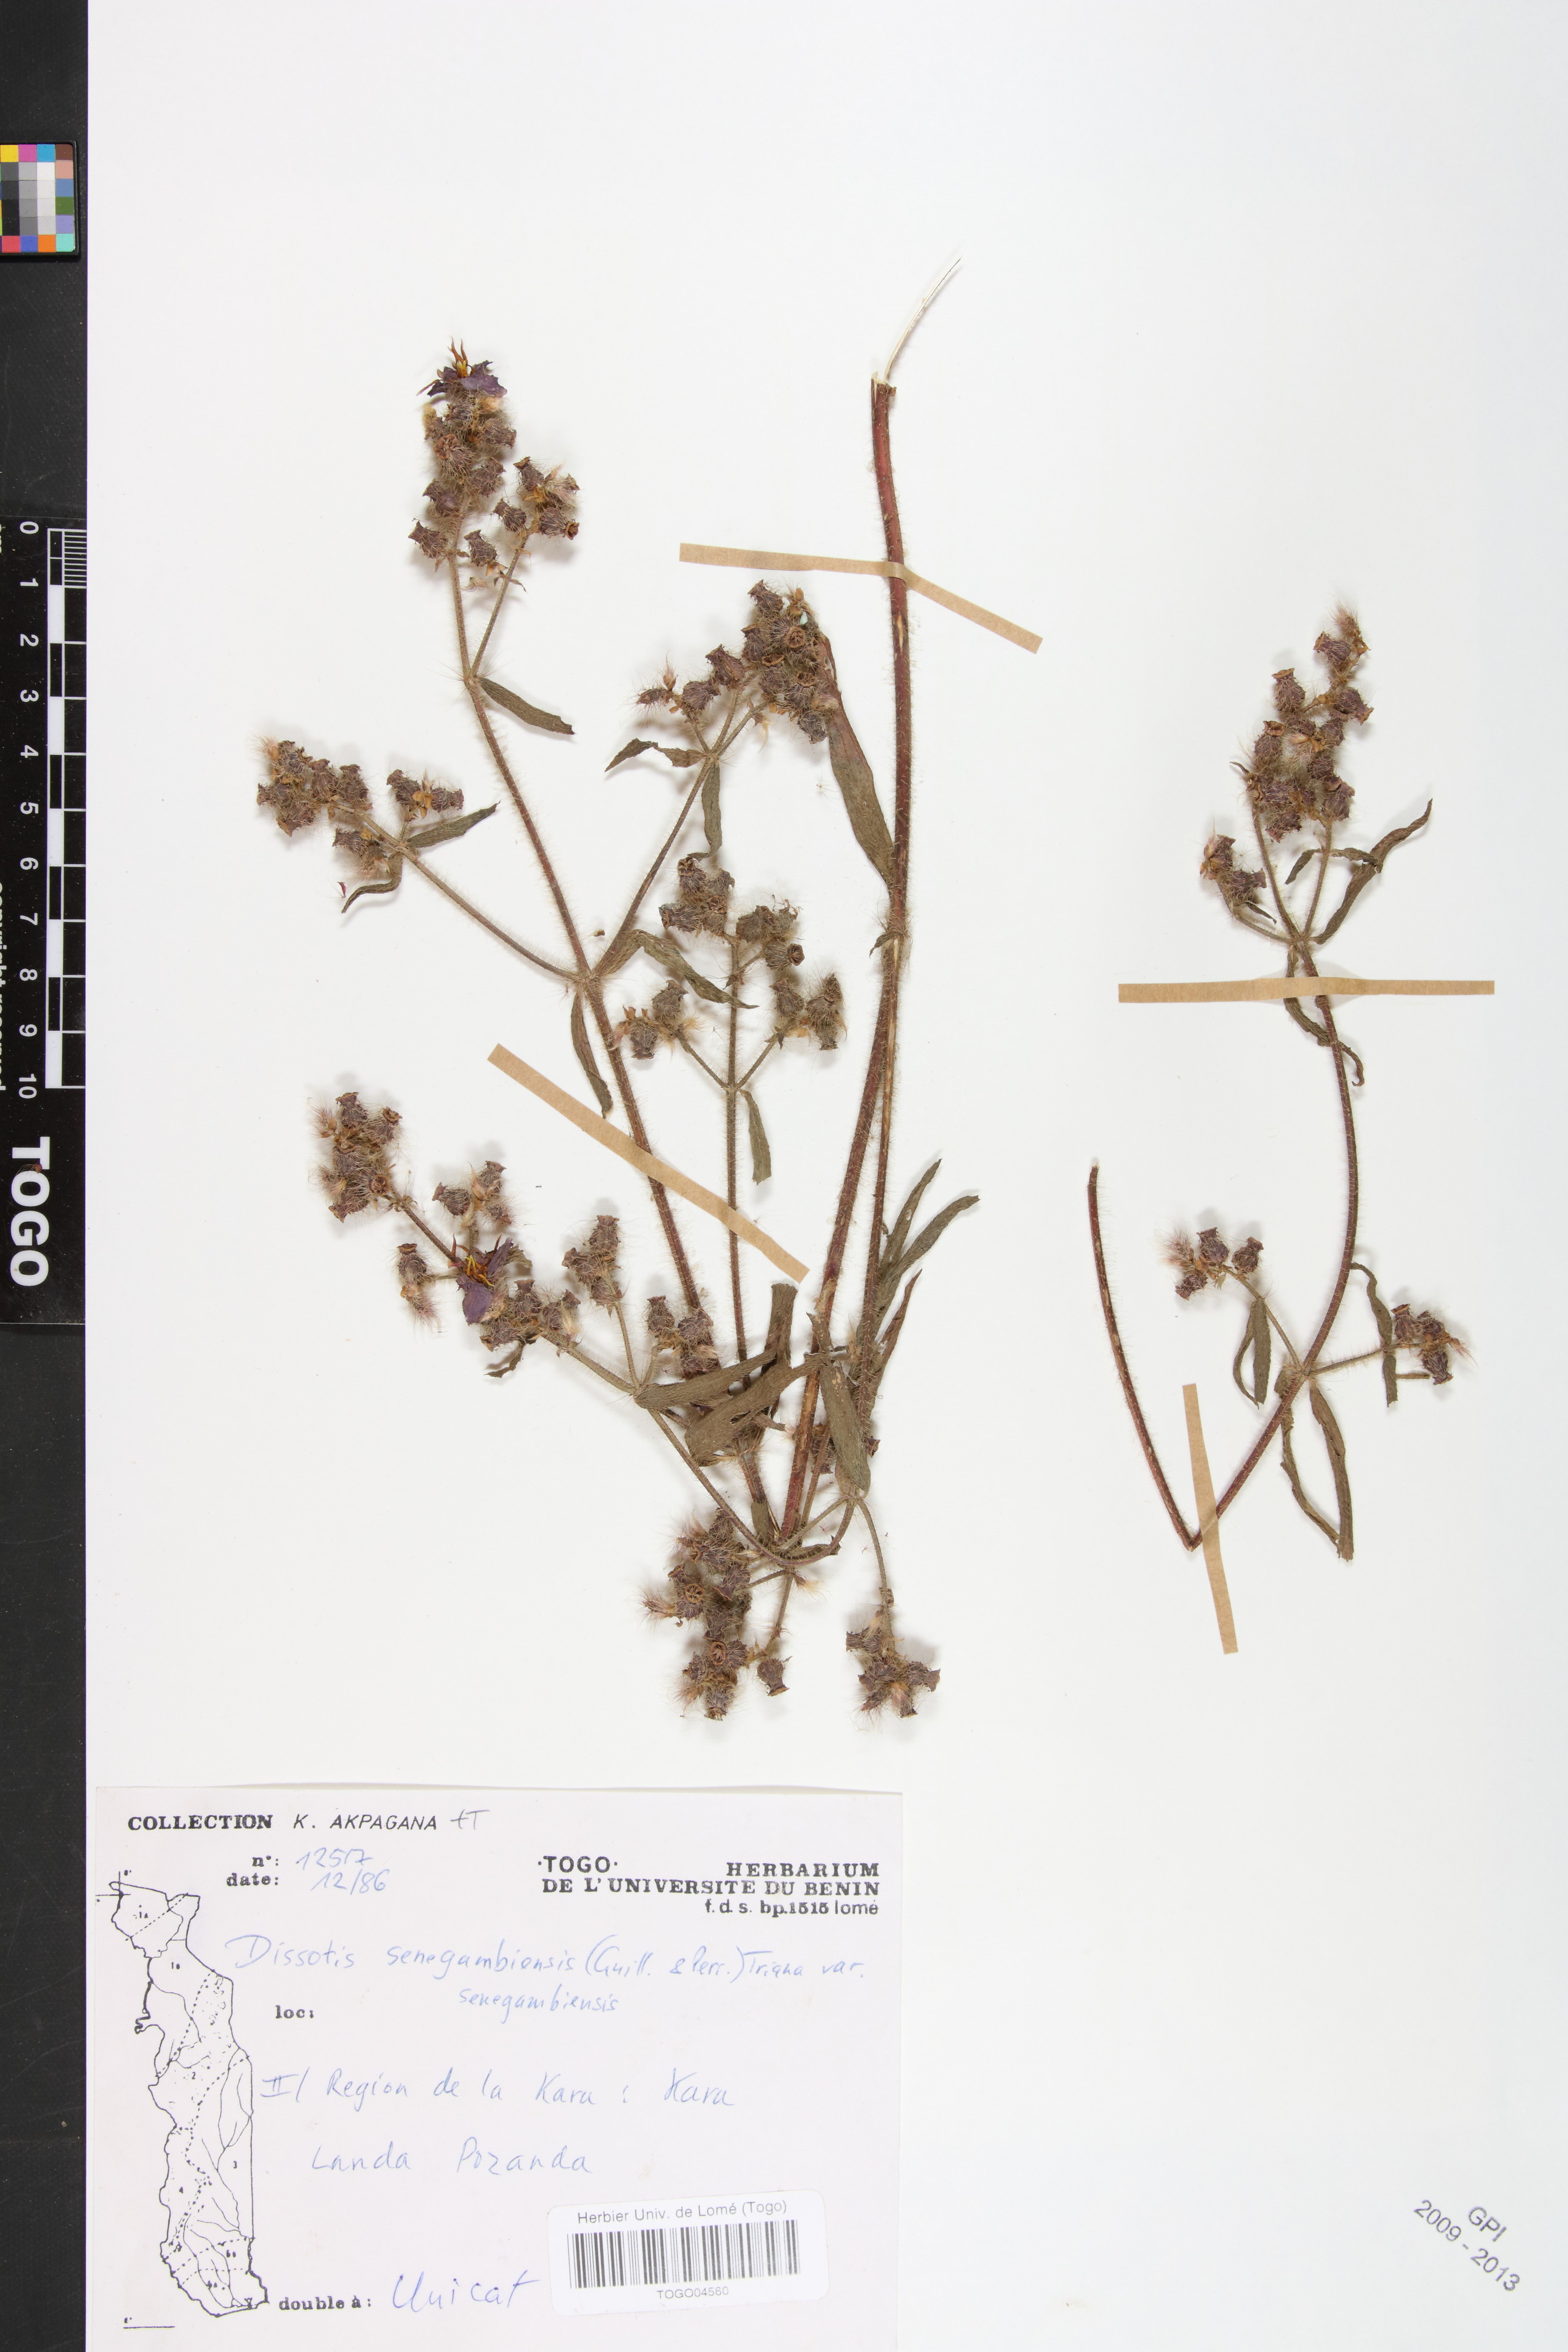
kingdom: Plantae
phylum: Tracheophyta
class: Magnoliopsida
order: Myrtales
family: Melastomataceae
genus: Antherotoma
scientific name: Antherotoma irvingiana
